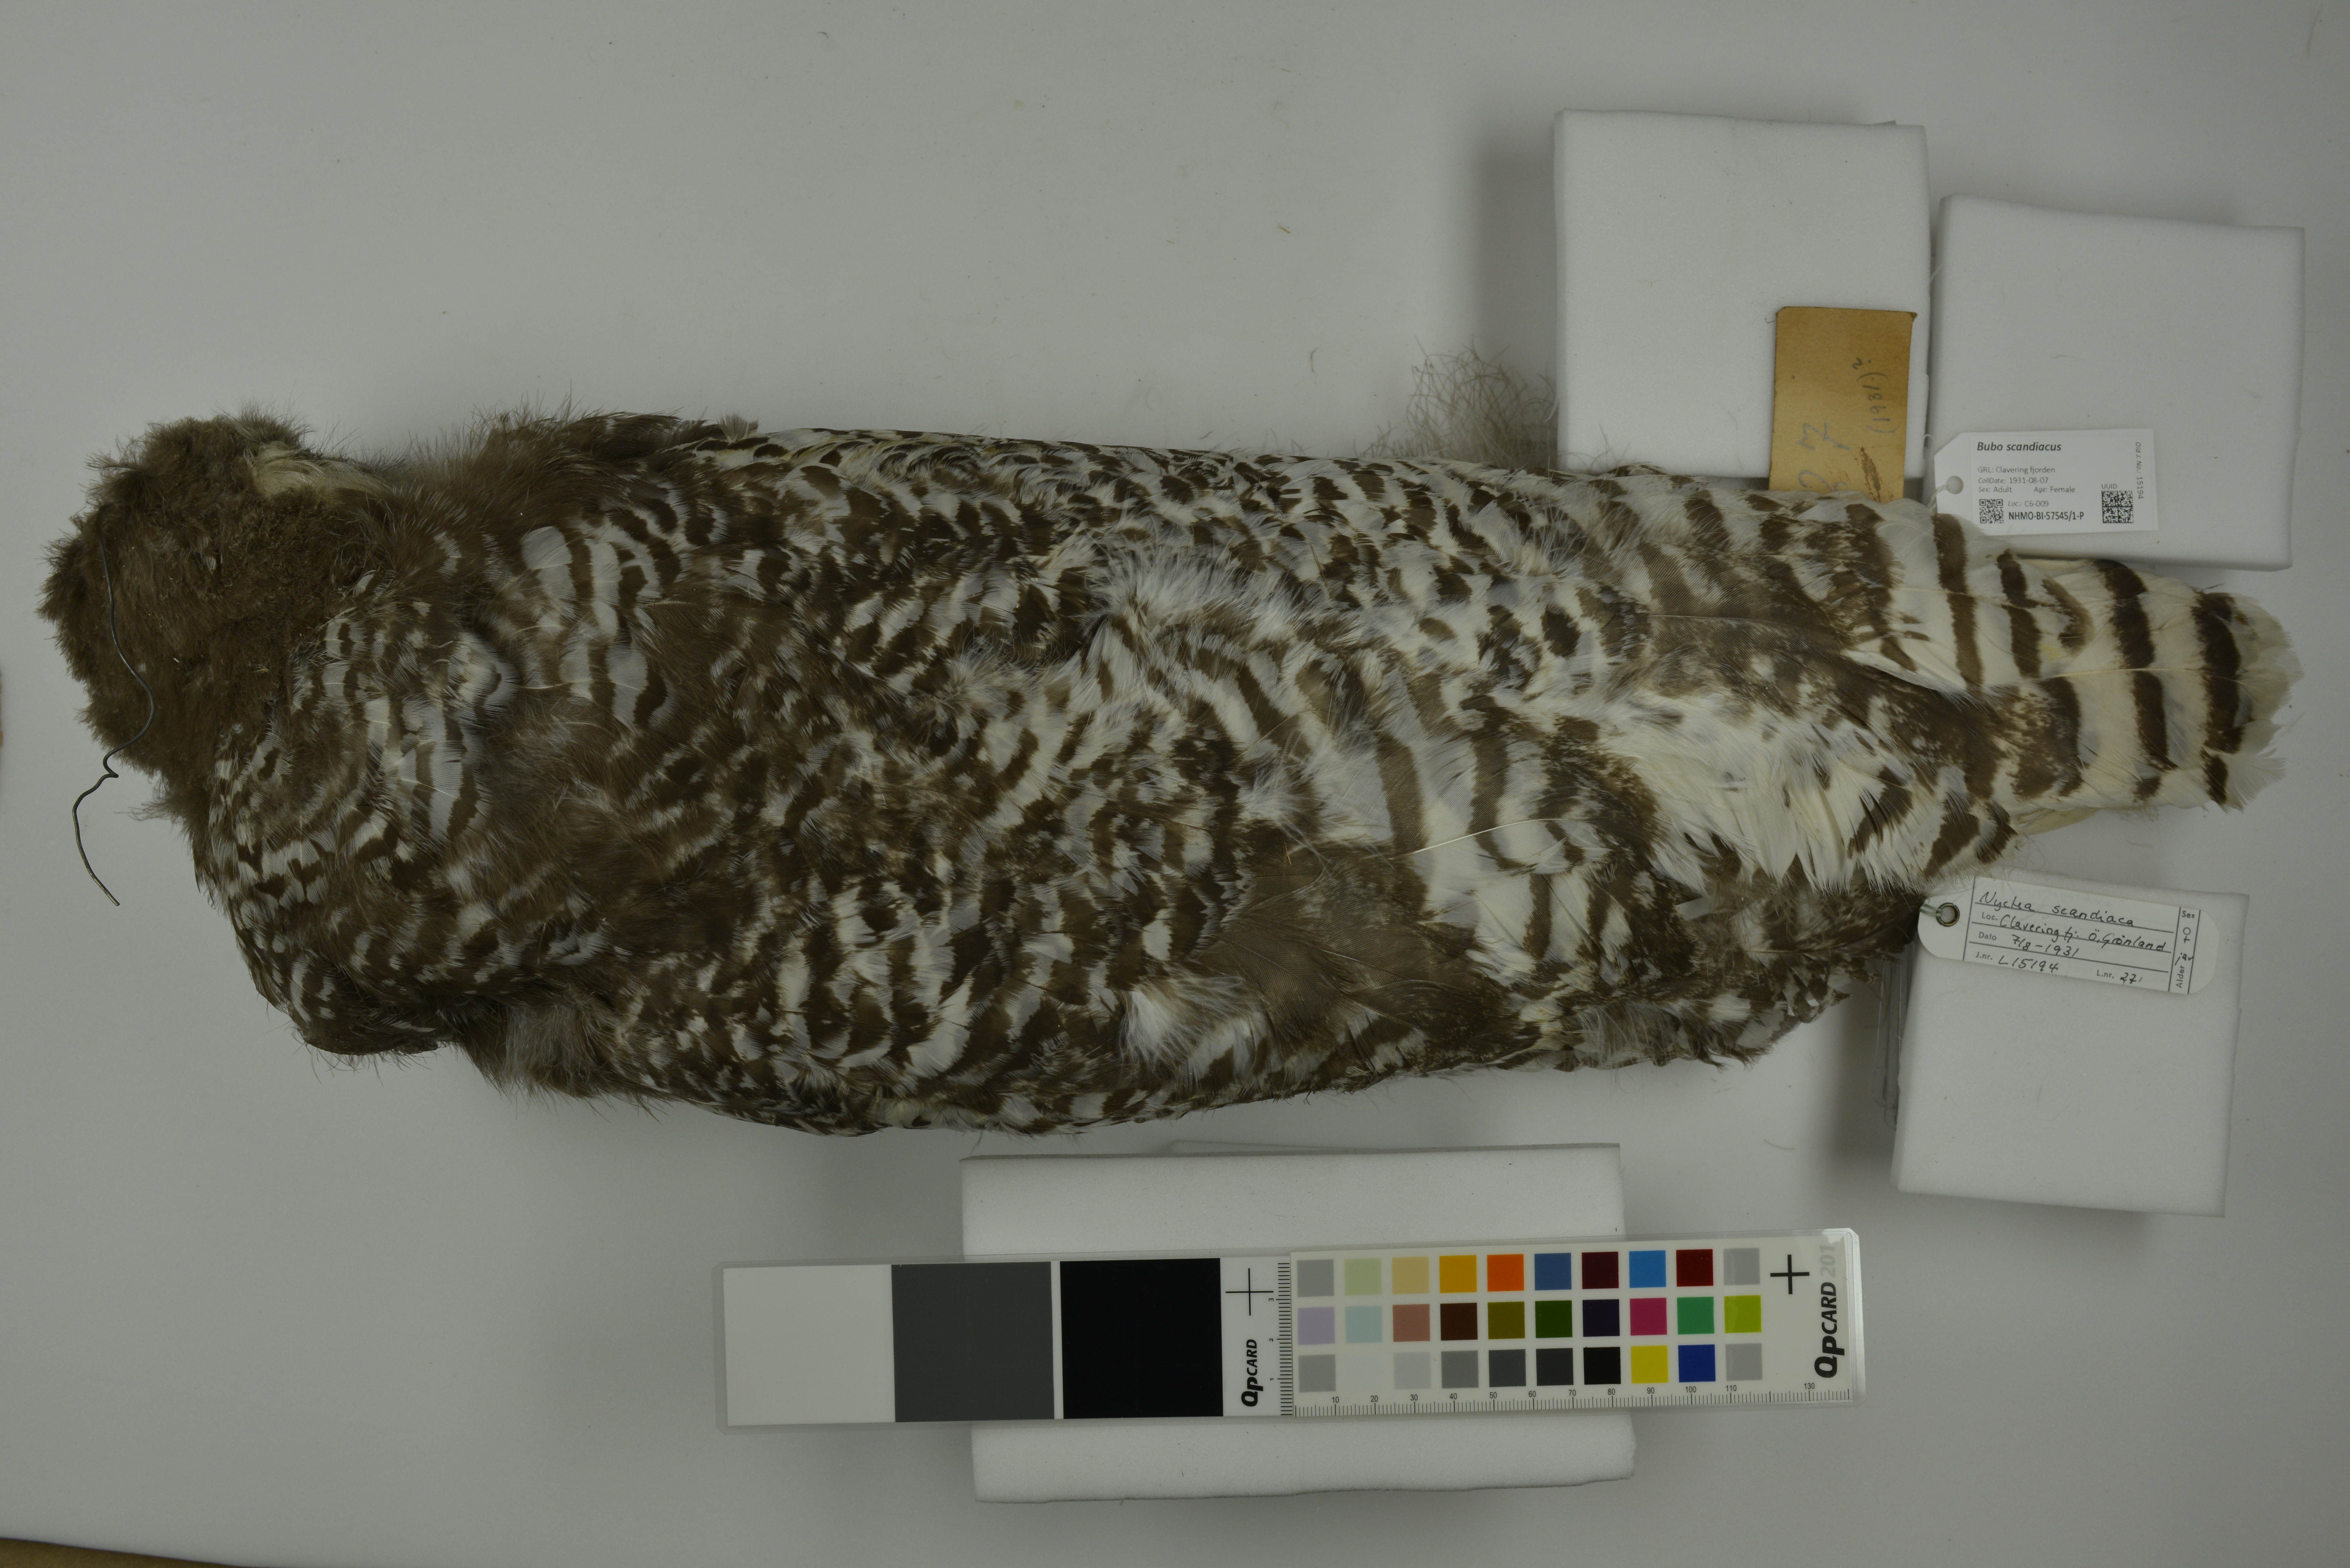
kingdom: Animalia
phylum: Chordata
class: Aves
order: Strigiformes
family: Strigidae
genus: Bubo
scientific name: Bubo scandiacus
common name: Snowy owl
